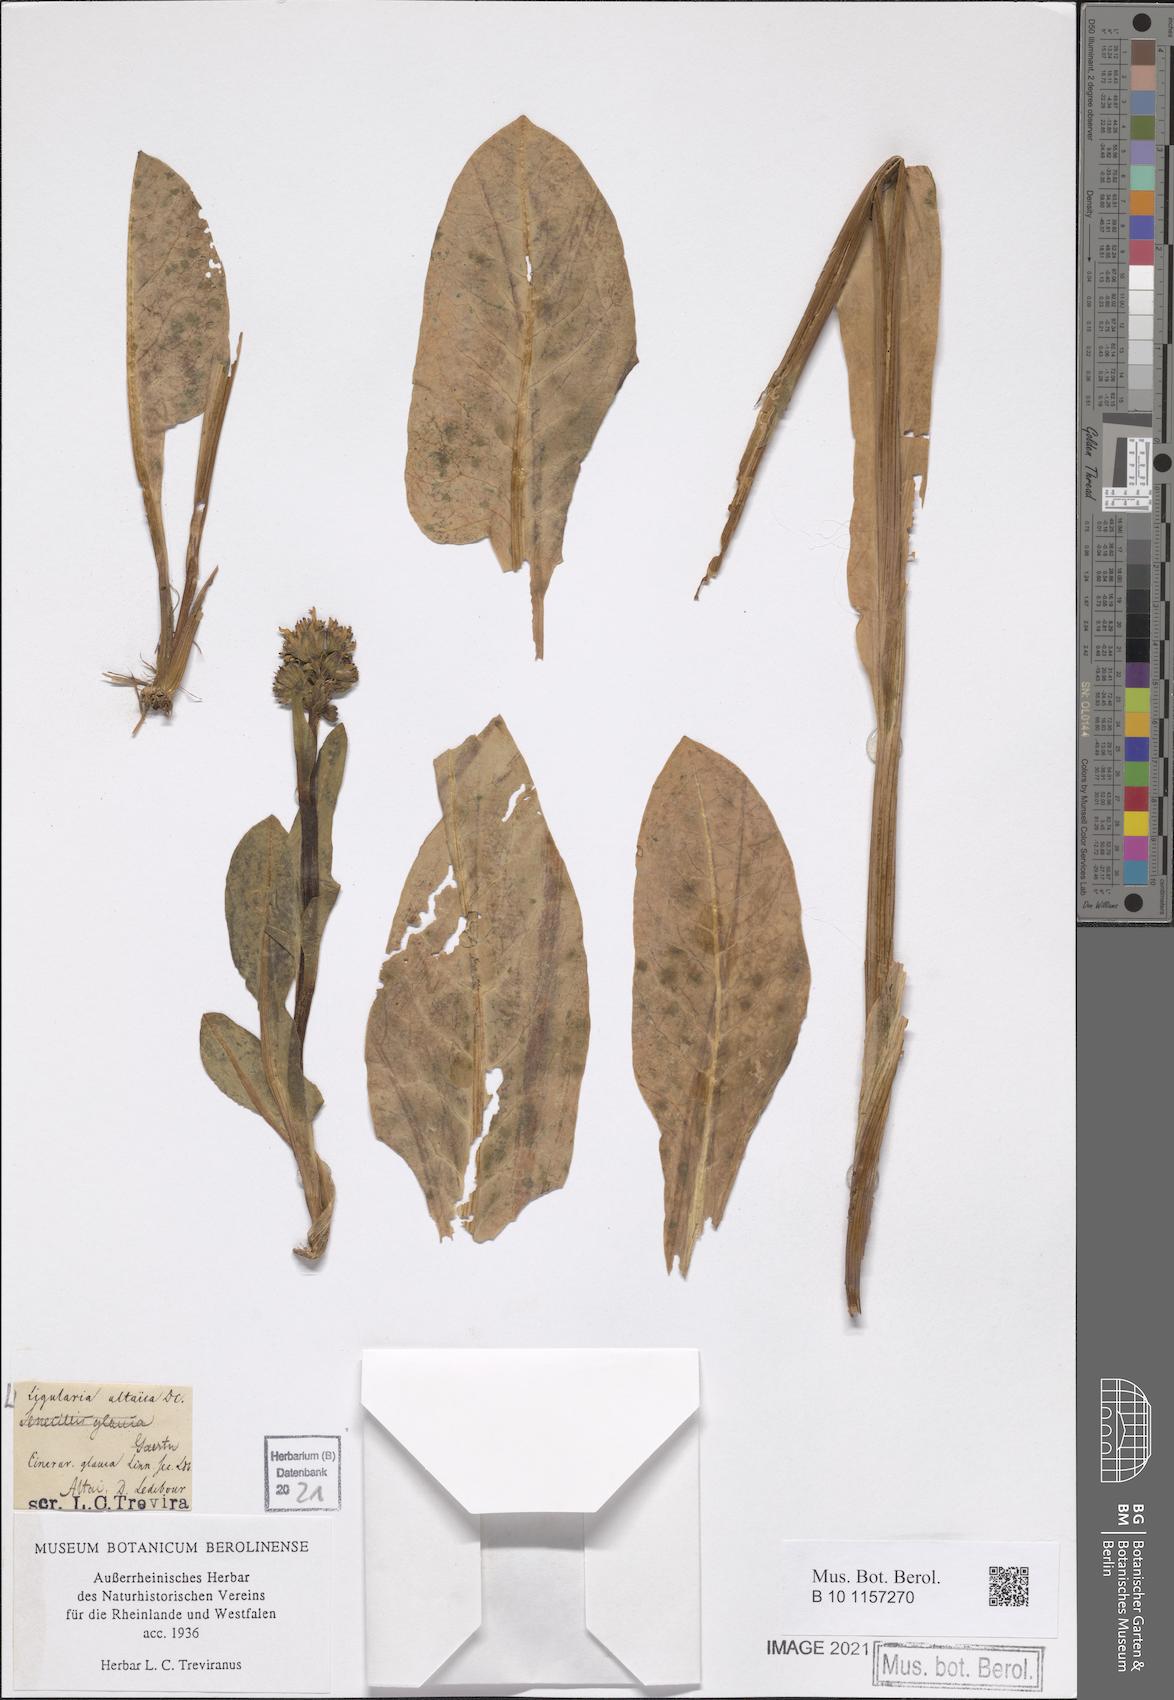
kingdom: Plantae
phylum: Tracheophyta
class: Magnoliopsida
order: Asterales
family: Asteraceae
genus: Ligularia
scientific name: Ligularia altaica
